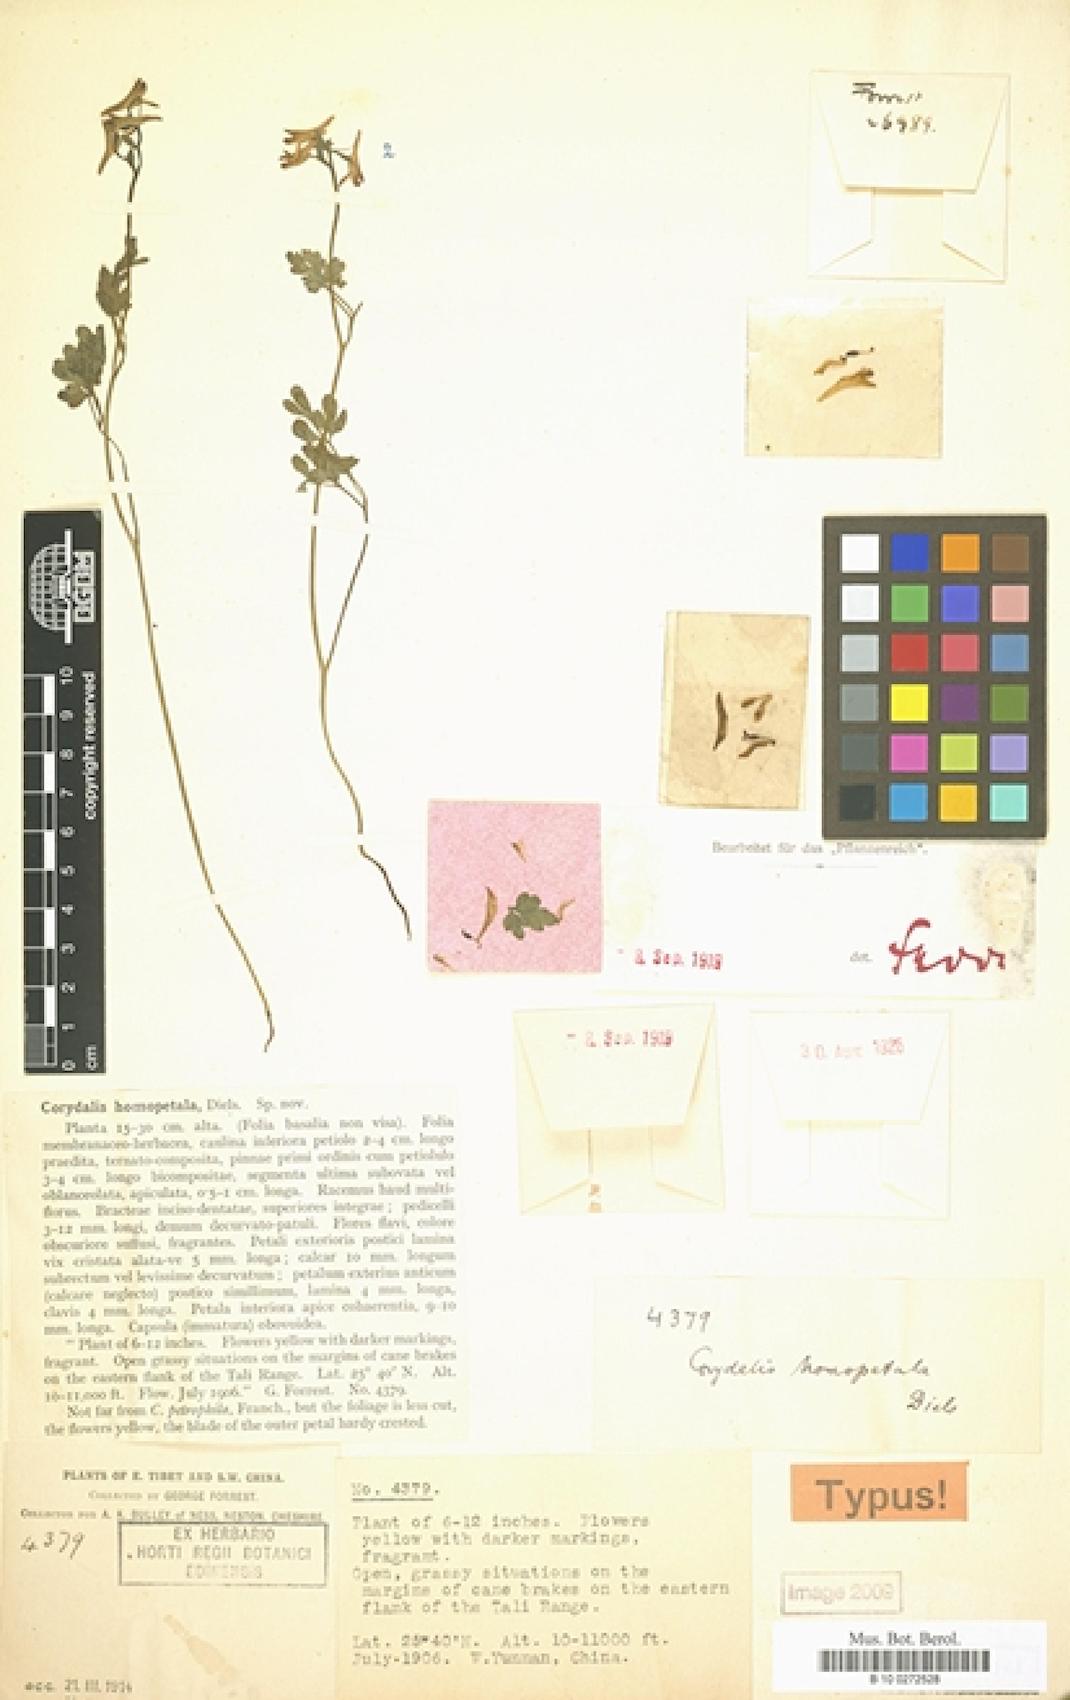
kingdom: Plantae
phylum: Tracheophyta
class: Magnoliopsida
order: Ranunculales
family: Papaveraceae
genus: Corydalis
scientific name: Corydalis homopetala
